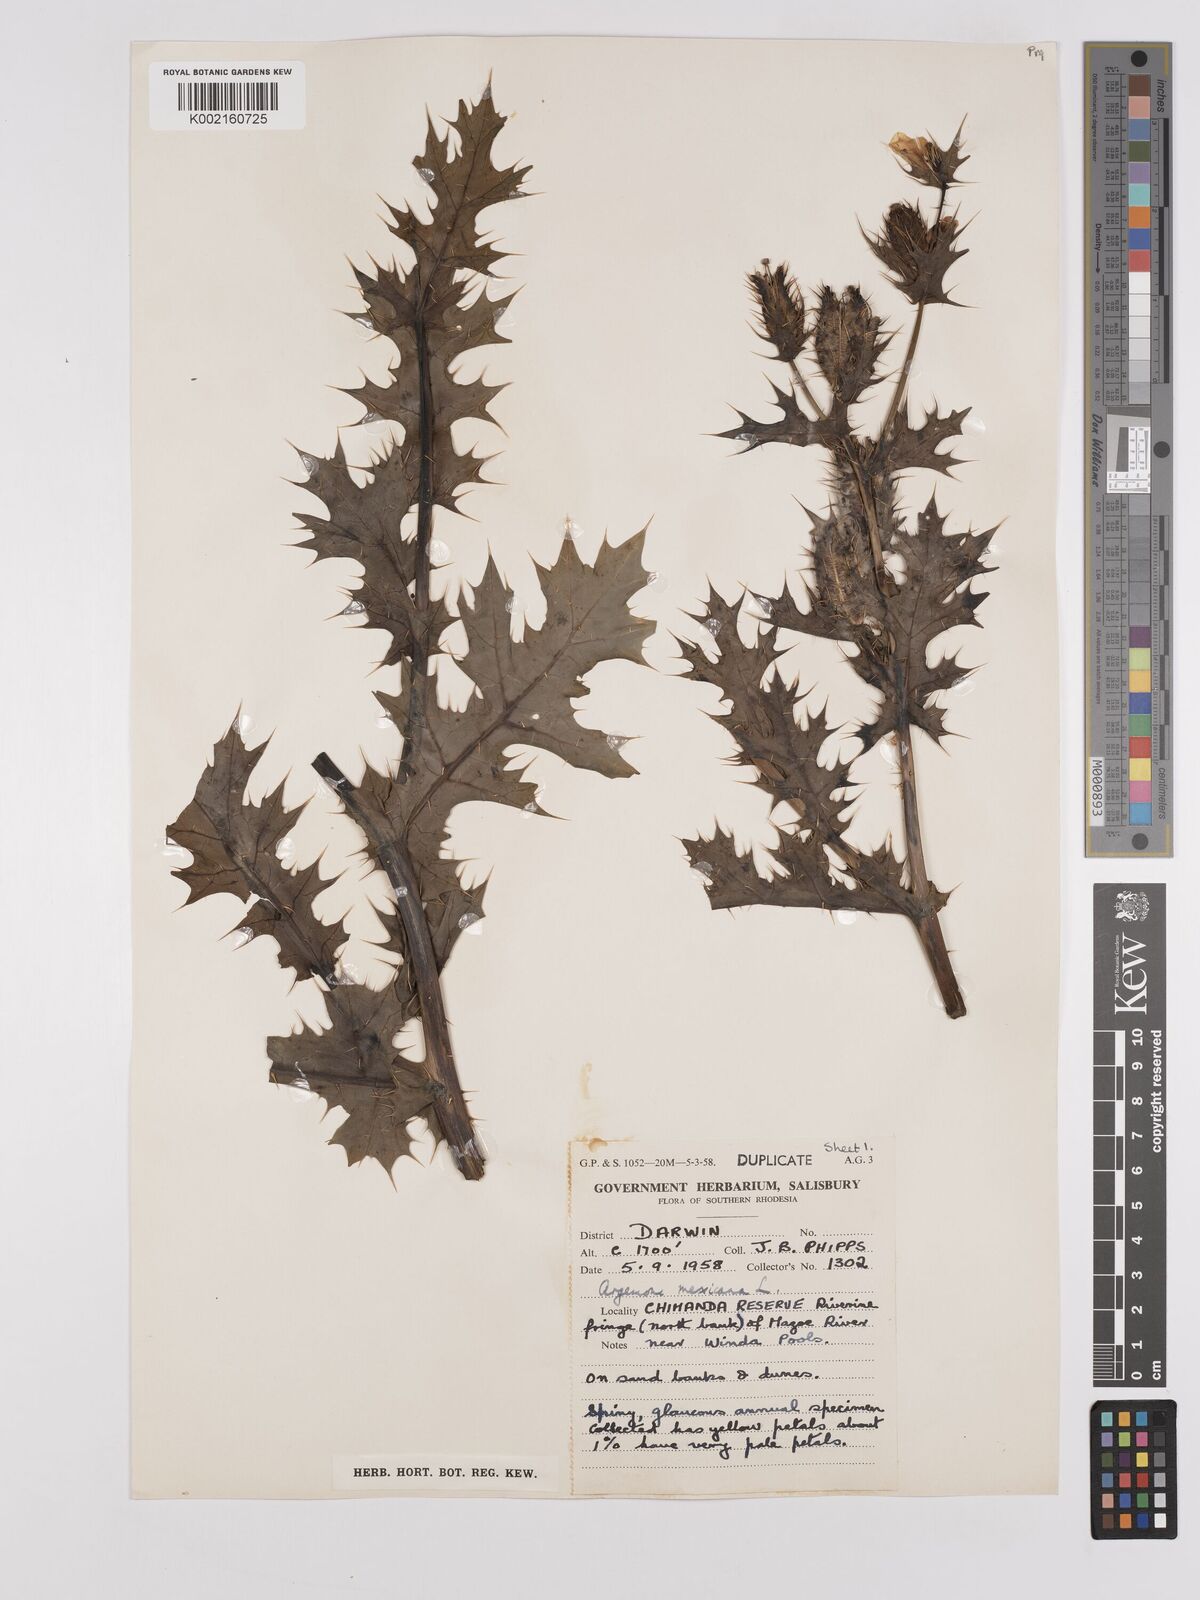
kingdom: Plantae
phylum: Tracheophyta
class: Magnoliopsida
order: Ranunculales
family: Papaveraceae
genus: Argemone
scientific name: Argemone mexicana
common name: Mexican poppy
